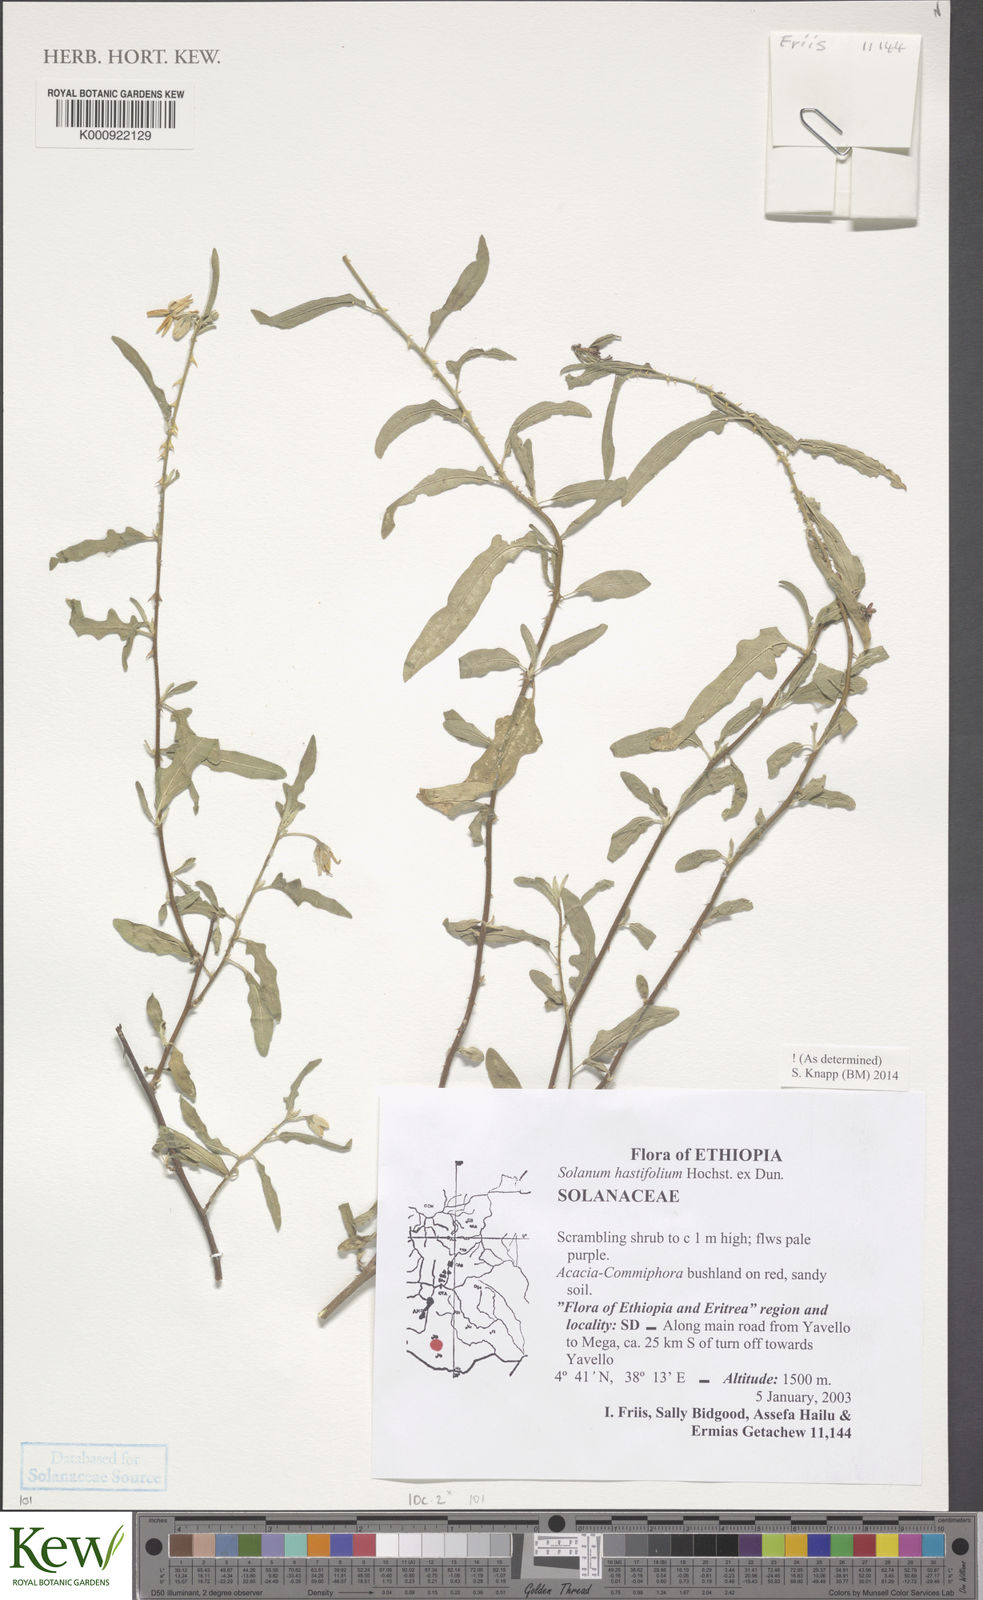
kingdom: Plantae
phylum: Tracheophyta
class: Magnoliopsida
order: Solanales
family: Solanaceae
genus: Solanum
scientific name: Solanum hastifolium
